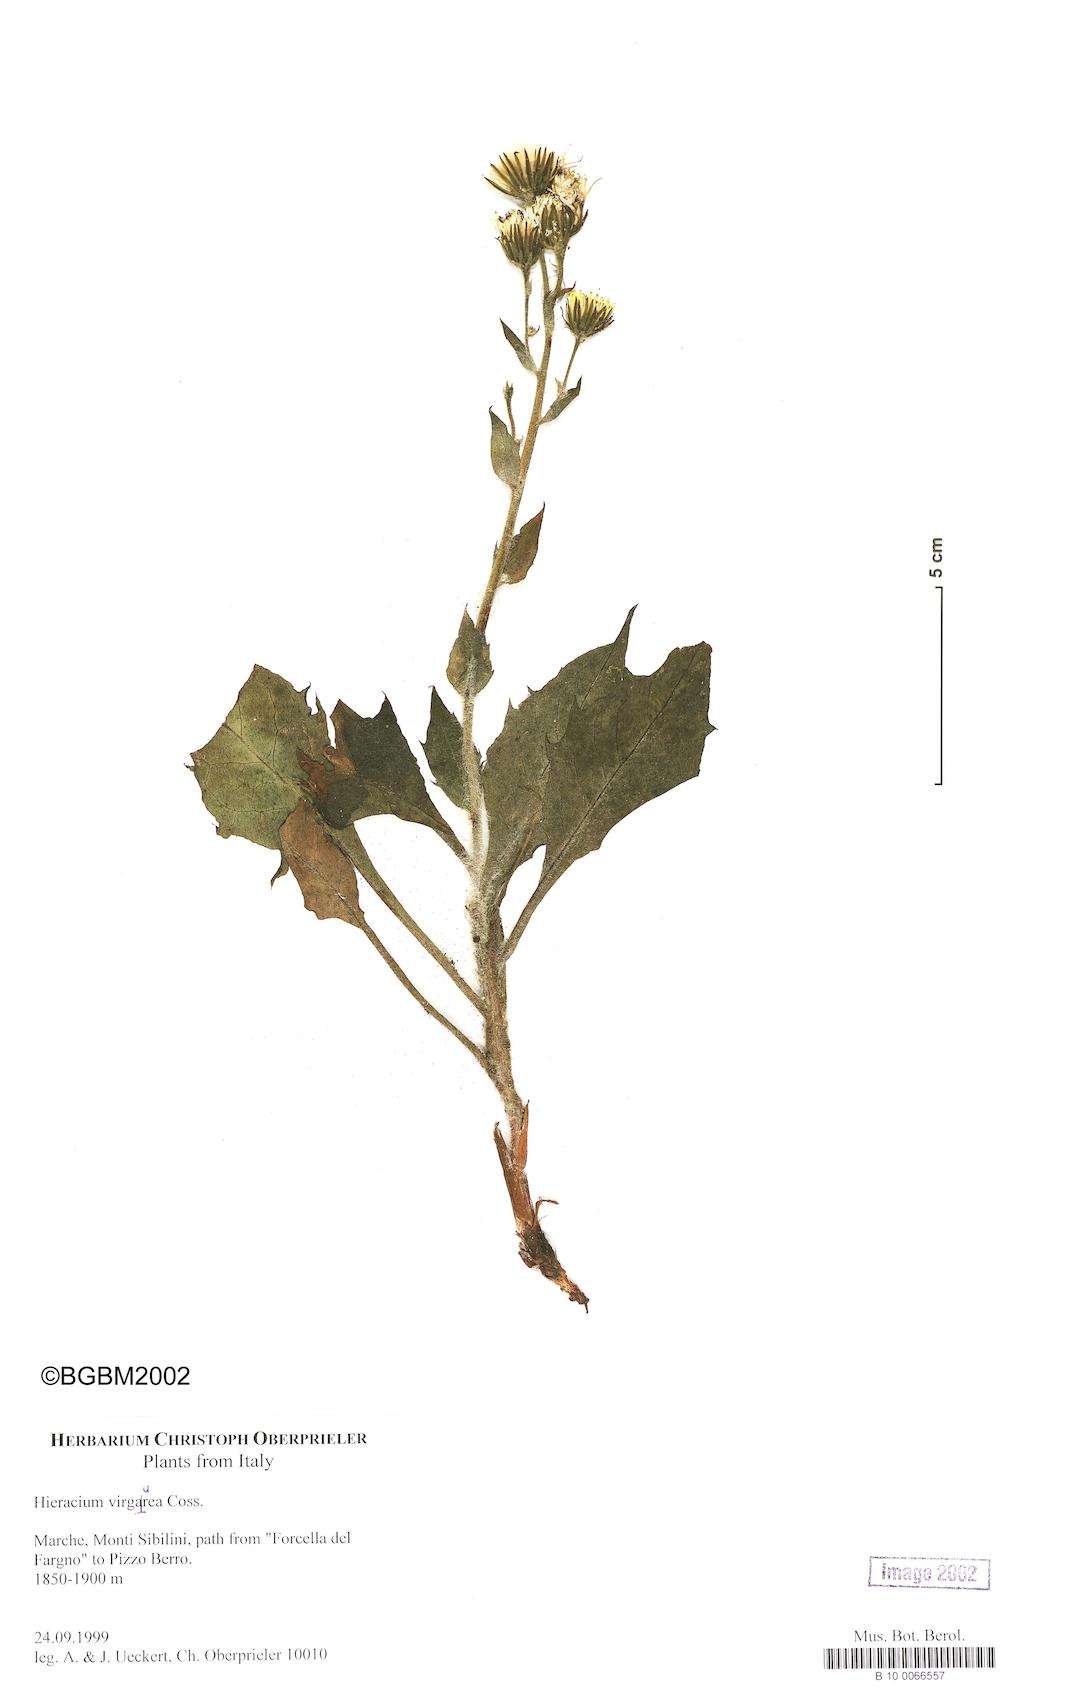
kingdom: Plantae
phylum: Tracheophyta
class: Magnoliopsida
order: Asterales
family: Asteraceae
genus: Hieracium
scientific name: Hieracium racemosum
